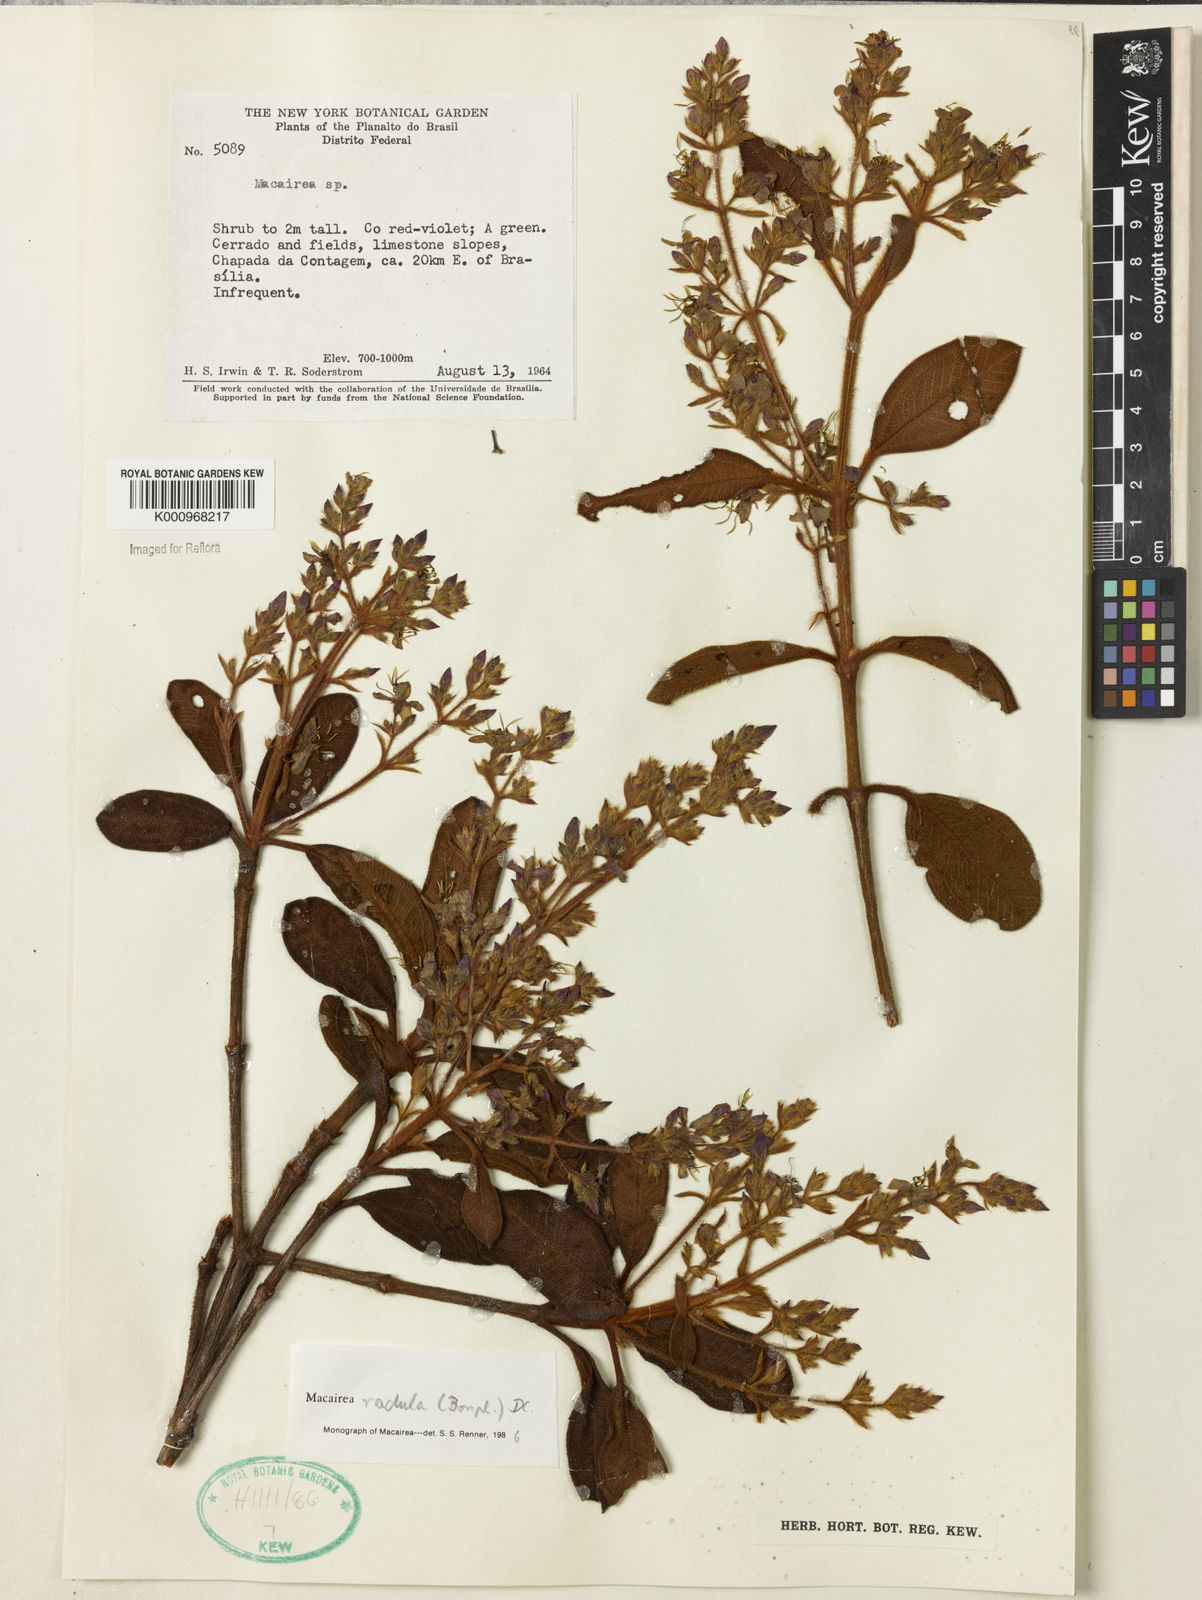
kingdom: Plantae
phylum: Tracheophyta
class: Magnoliopsida
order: Myrtales
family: Melastomataceae
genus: Macairea
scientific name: Macairea radula
